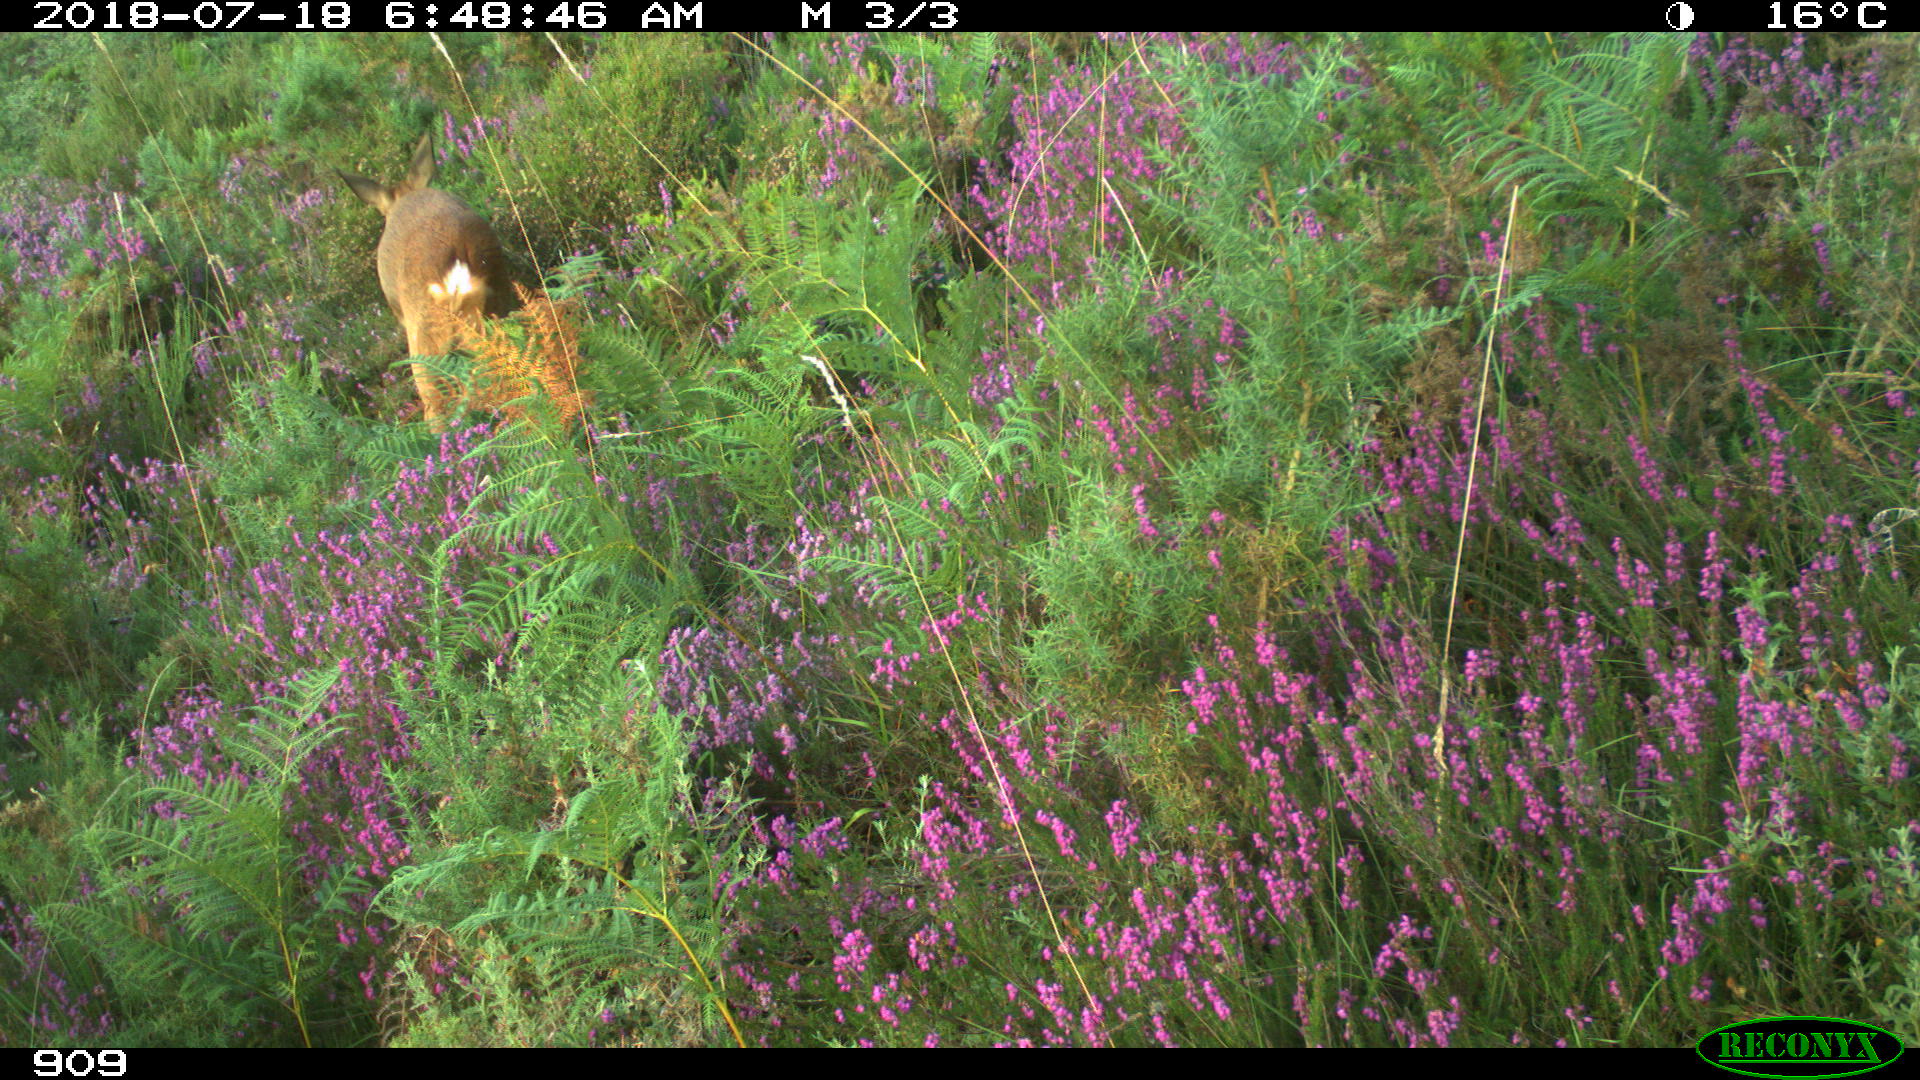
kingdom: Animalia
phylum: Chordata
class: Mammalia
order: Artiodactyla
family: Cervidae
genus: Capreolus
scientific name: Capreolus capreolus
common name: Western roe deer
